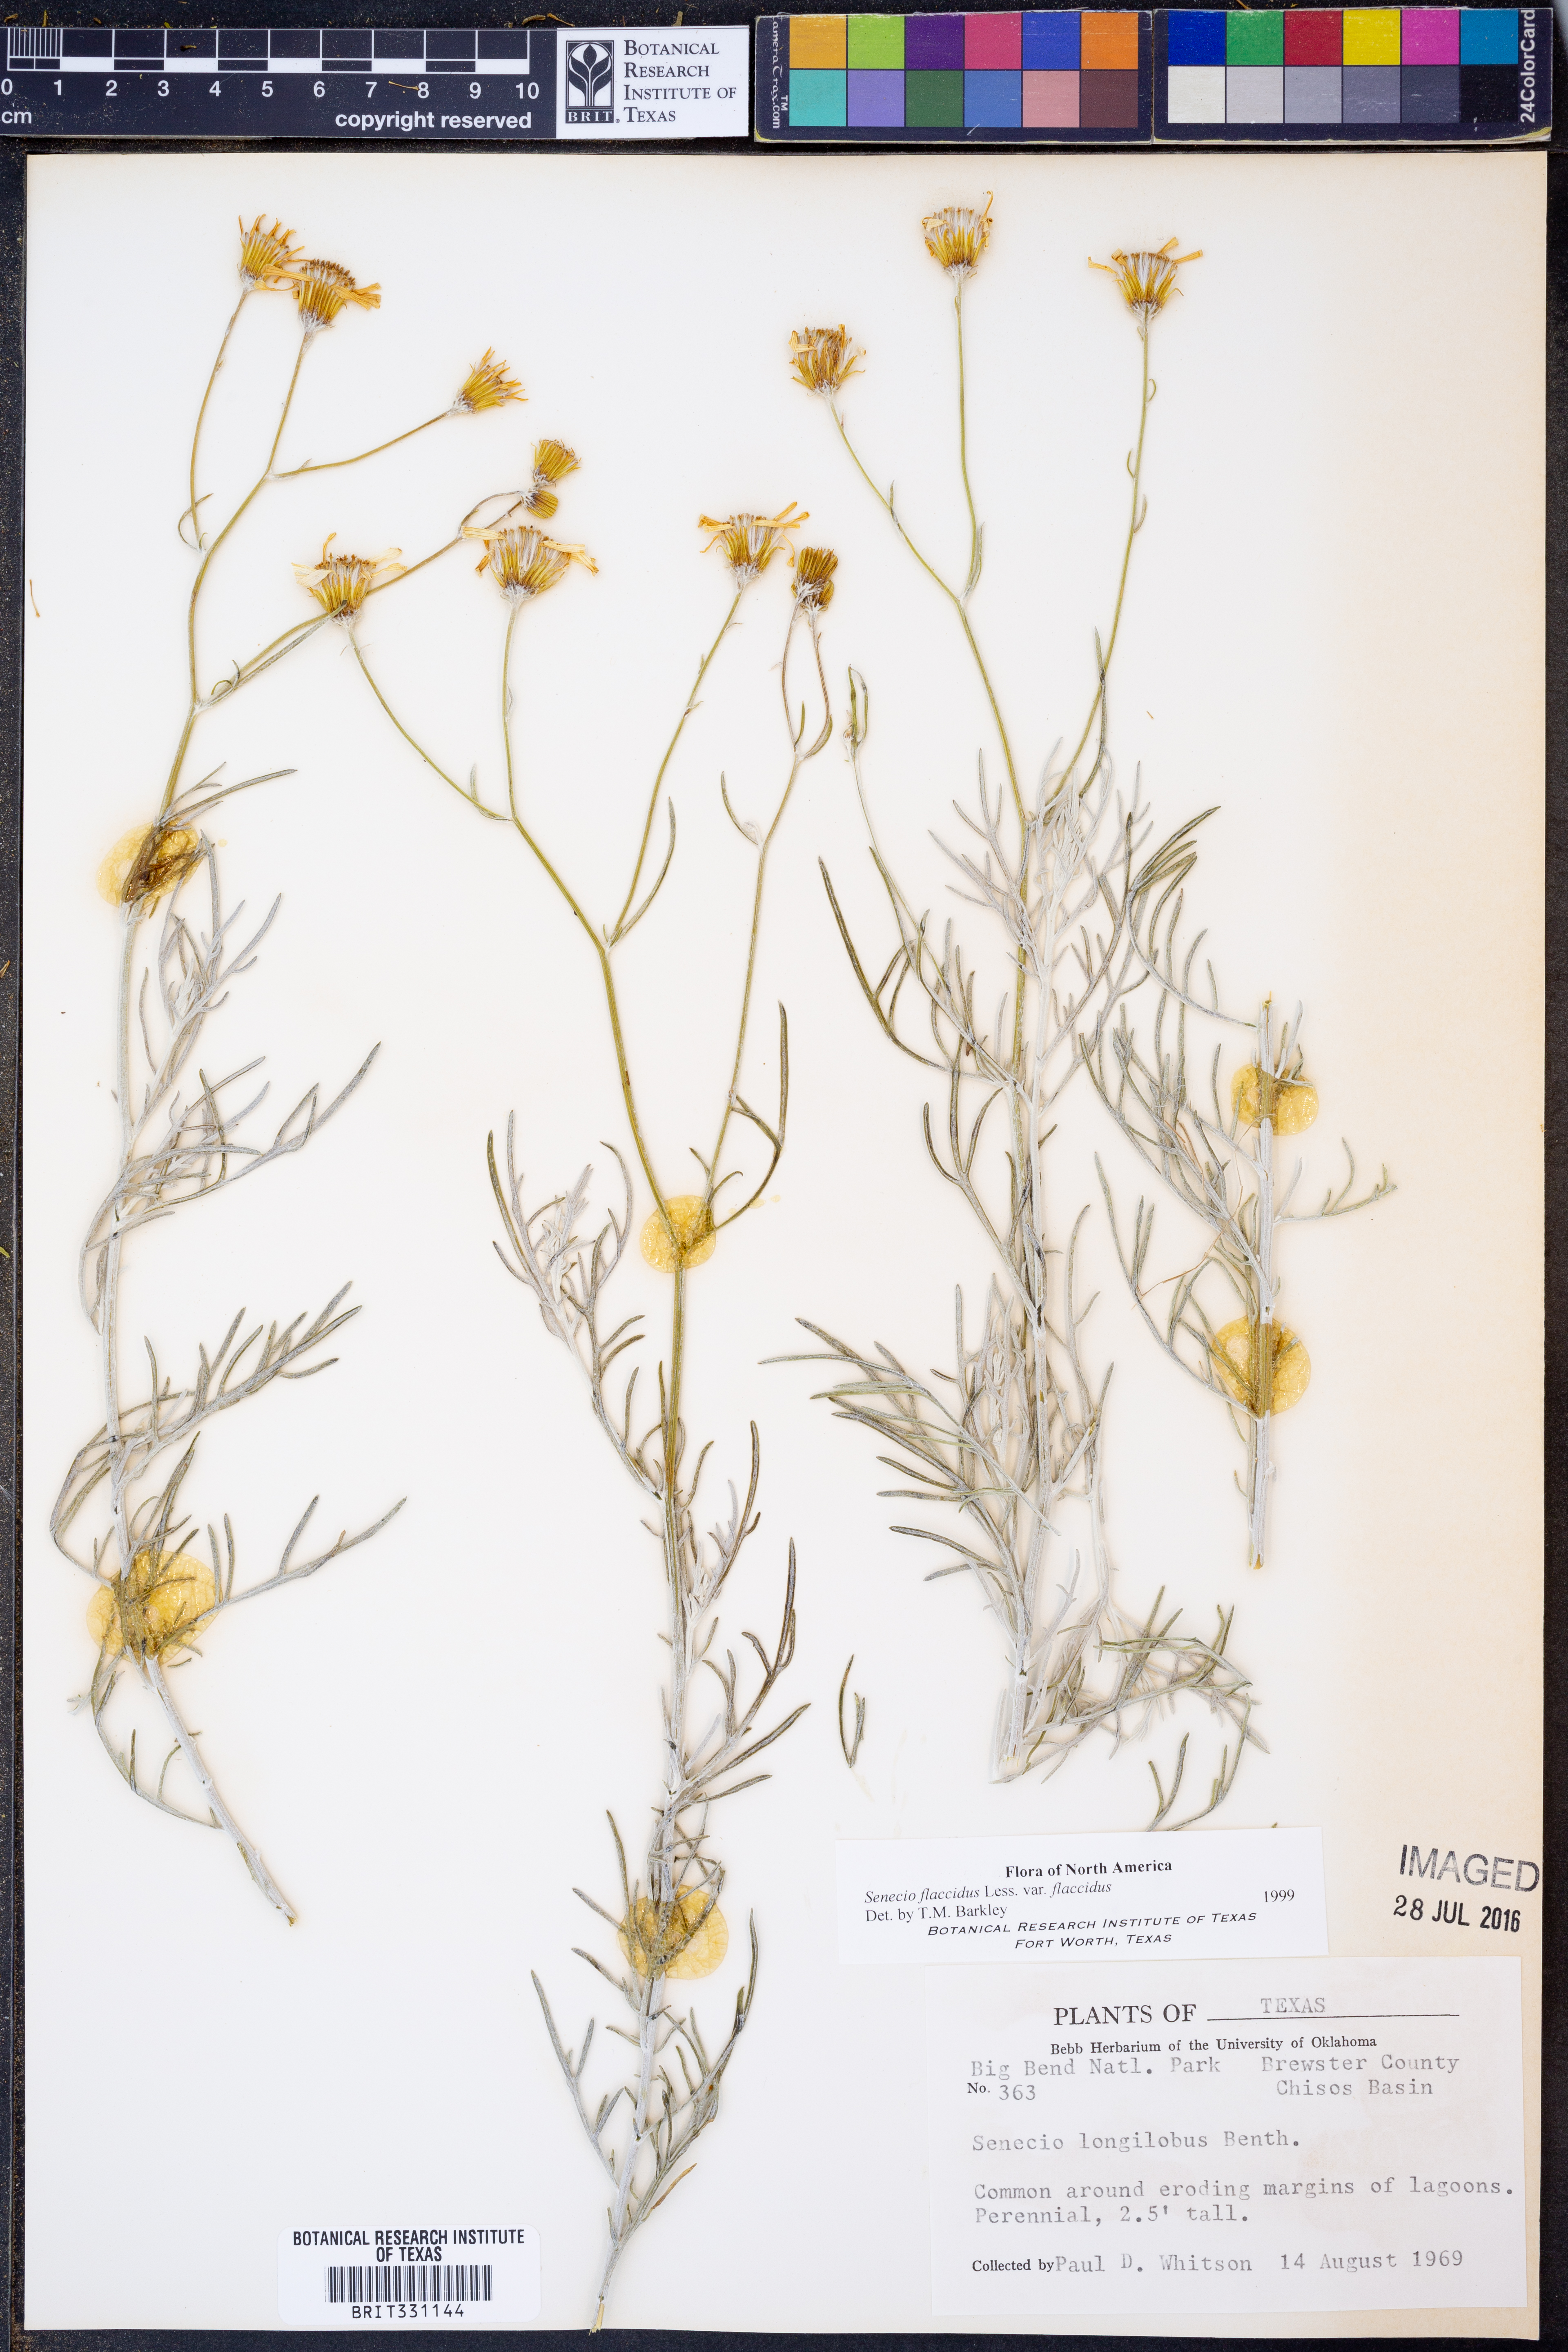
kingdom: Plantae
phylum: Tracheophyta
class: Magnoliopsida
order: Asterales
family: Asteraceae
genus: Senecio
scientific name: Senecio flaccidus
